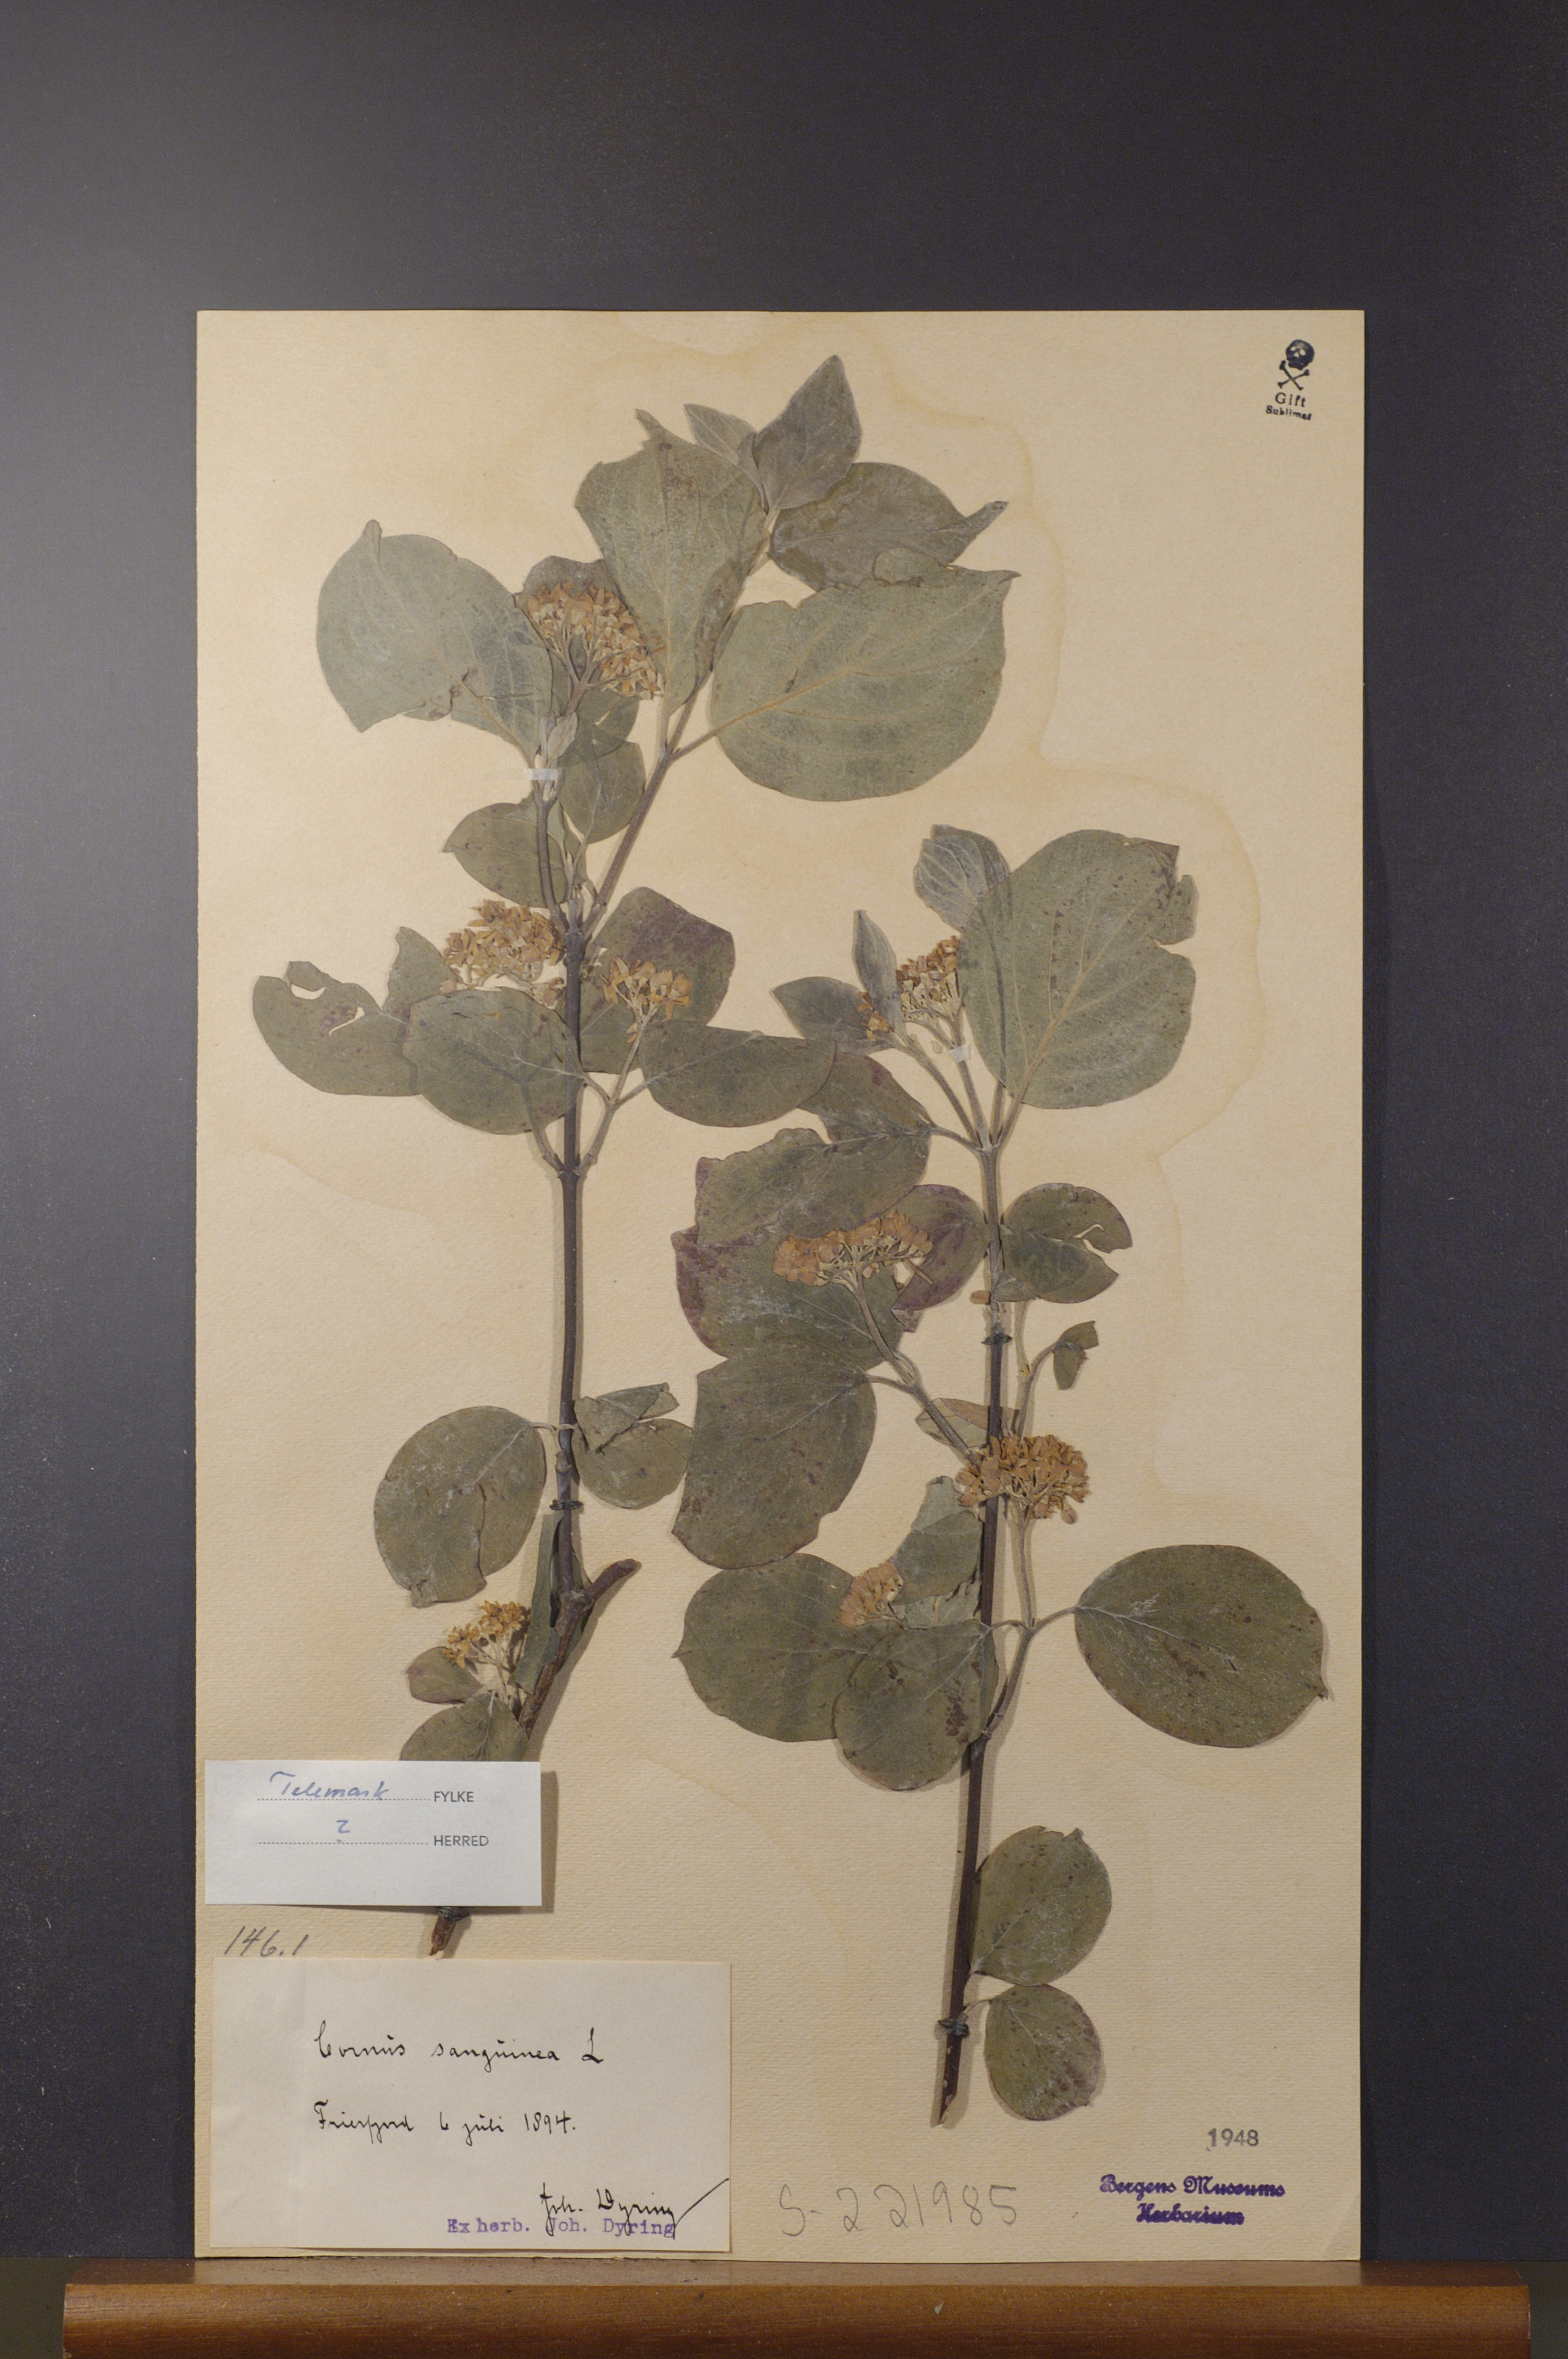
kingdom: Plantae
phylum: Tracheophyta
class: Magnoliopsida
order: Cornales
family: Cornaceae
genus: Cornus
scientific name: Cornus sanguinea
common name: Dogwood
